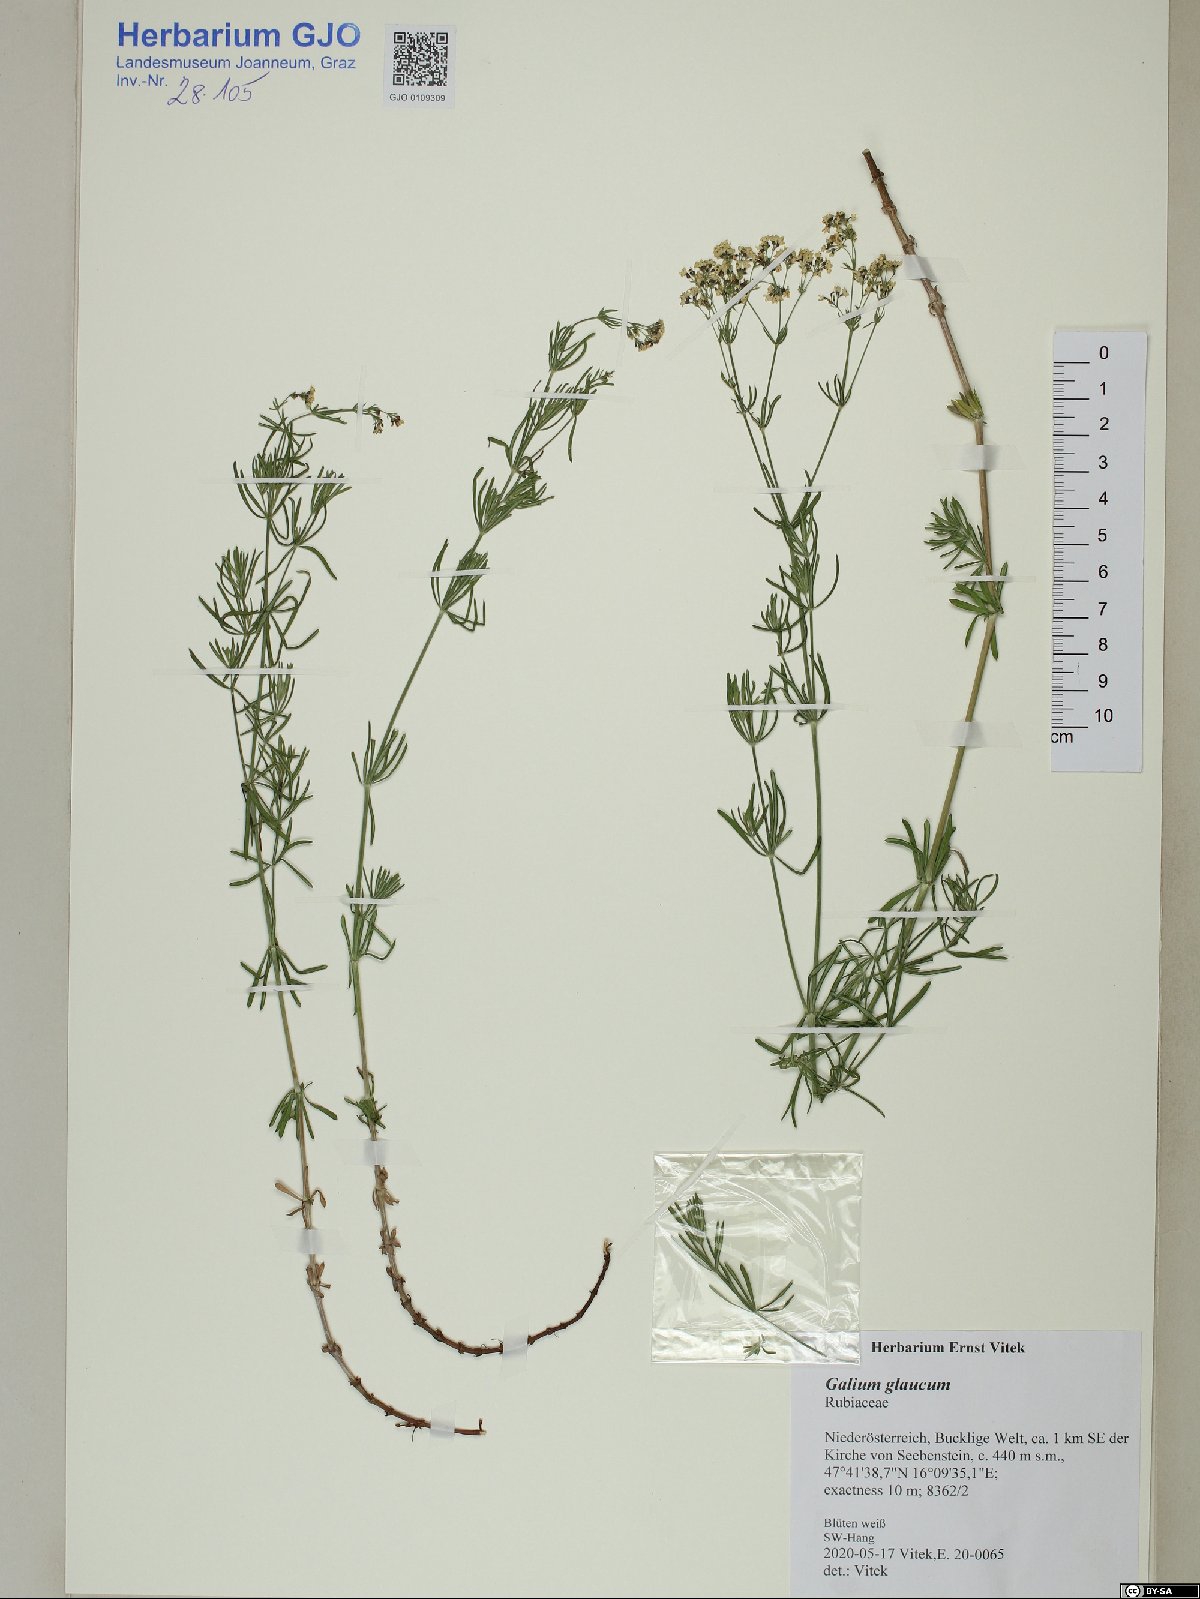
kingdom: Plantae
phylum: Tracheophyta
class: Magnoliopsida
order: Gentianales
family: Rubiaceae
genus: Galium
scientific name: Galium glaucum
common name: Waxy bedstraw
